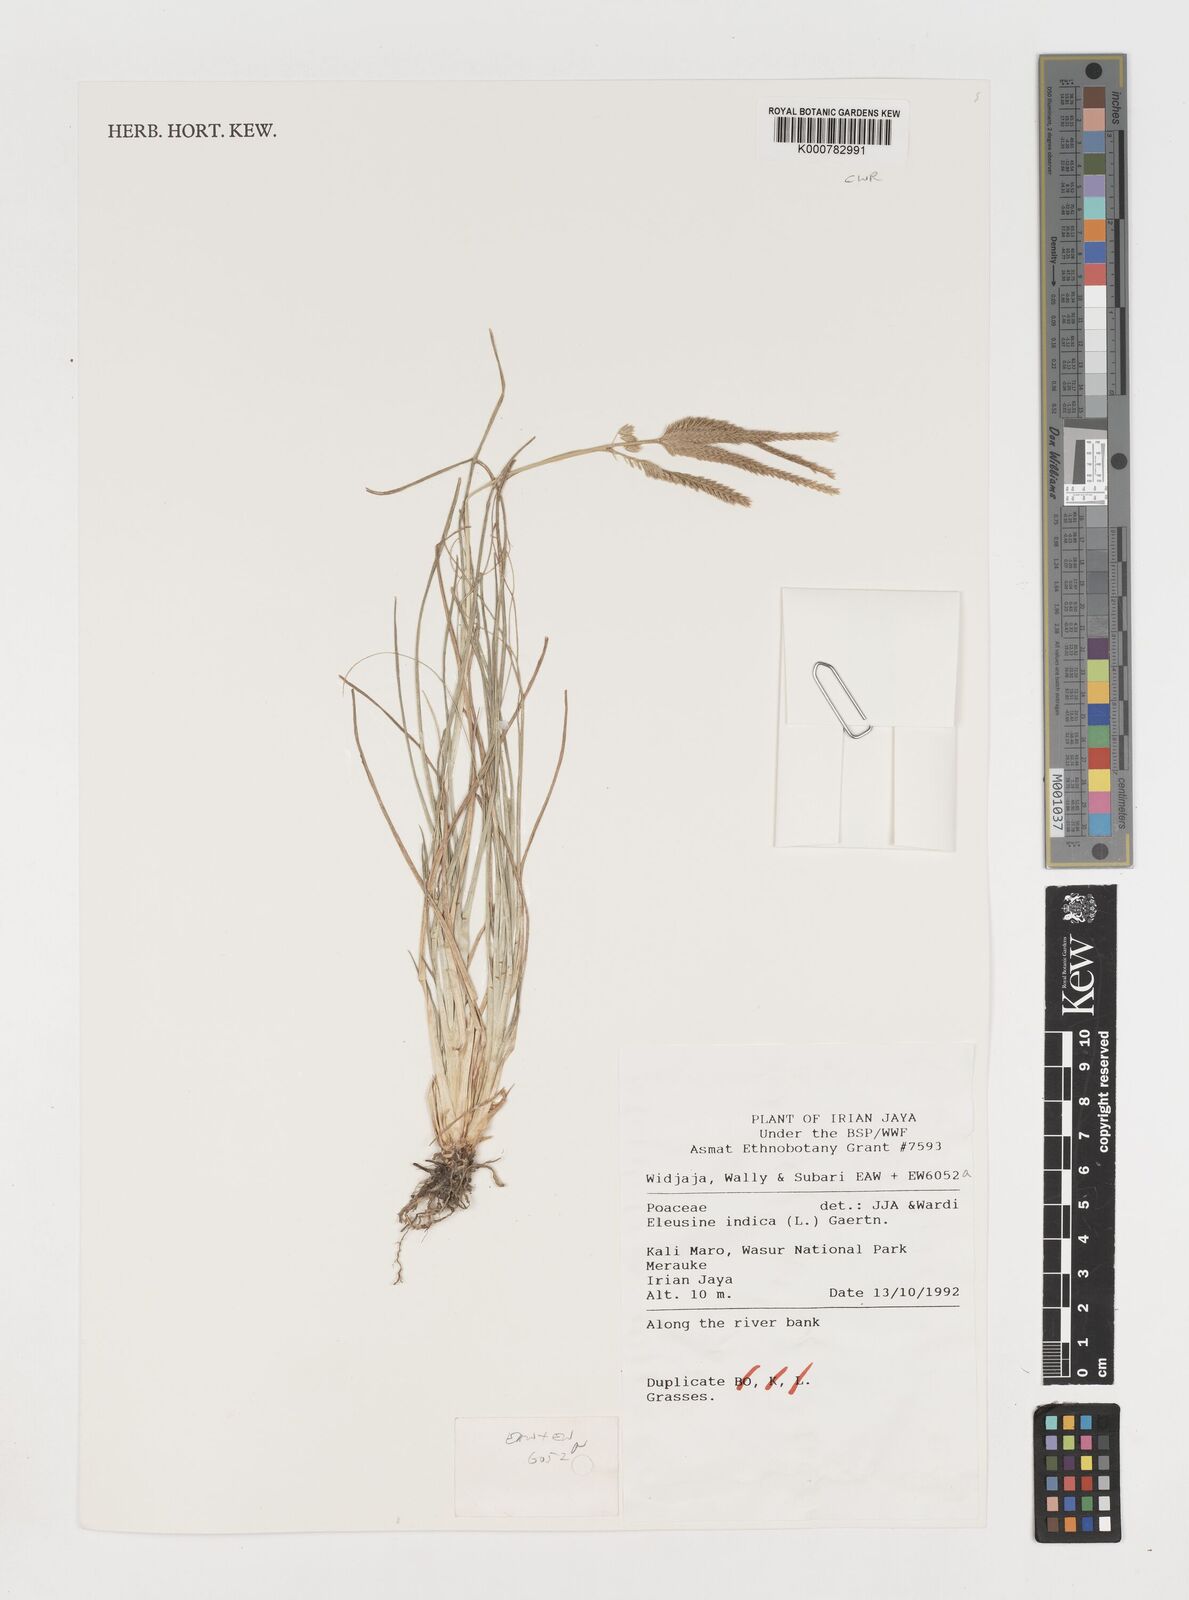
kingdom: Plantae
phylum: Tracheophyta
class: Liliopsida
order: Poales
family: Poaceae
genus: Eleusine
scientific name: Eleusine indica
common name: Yard-grass
